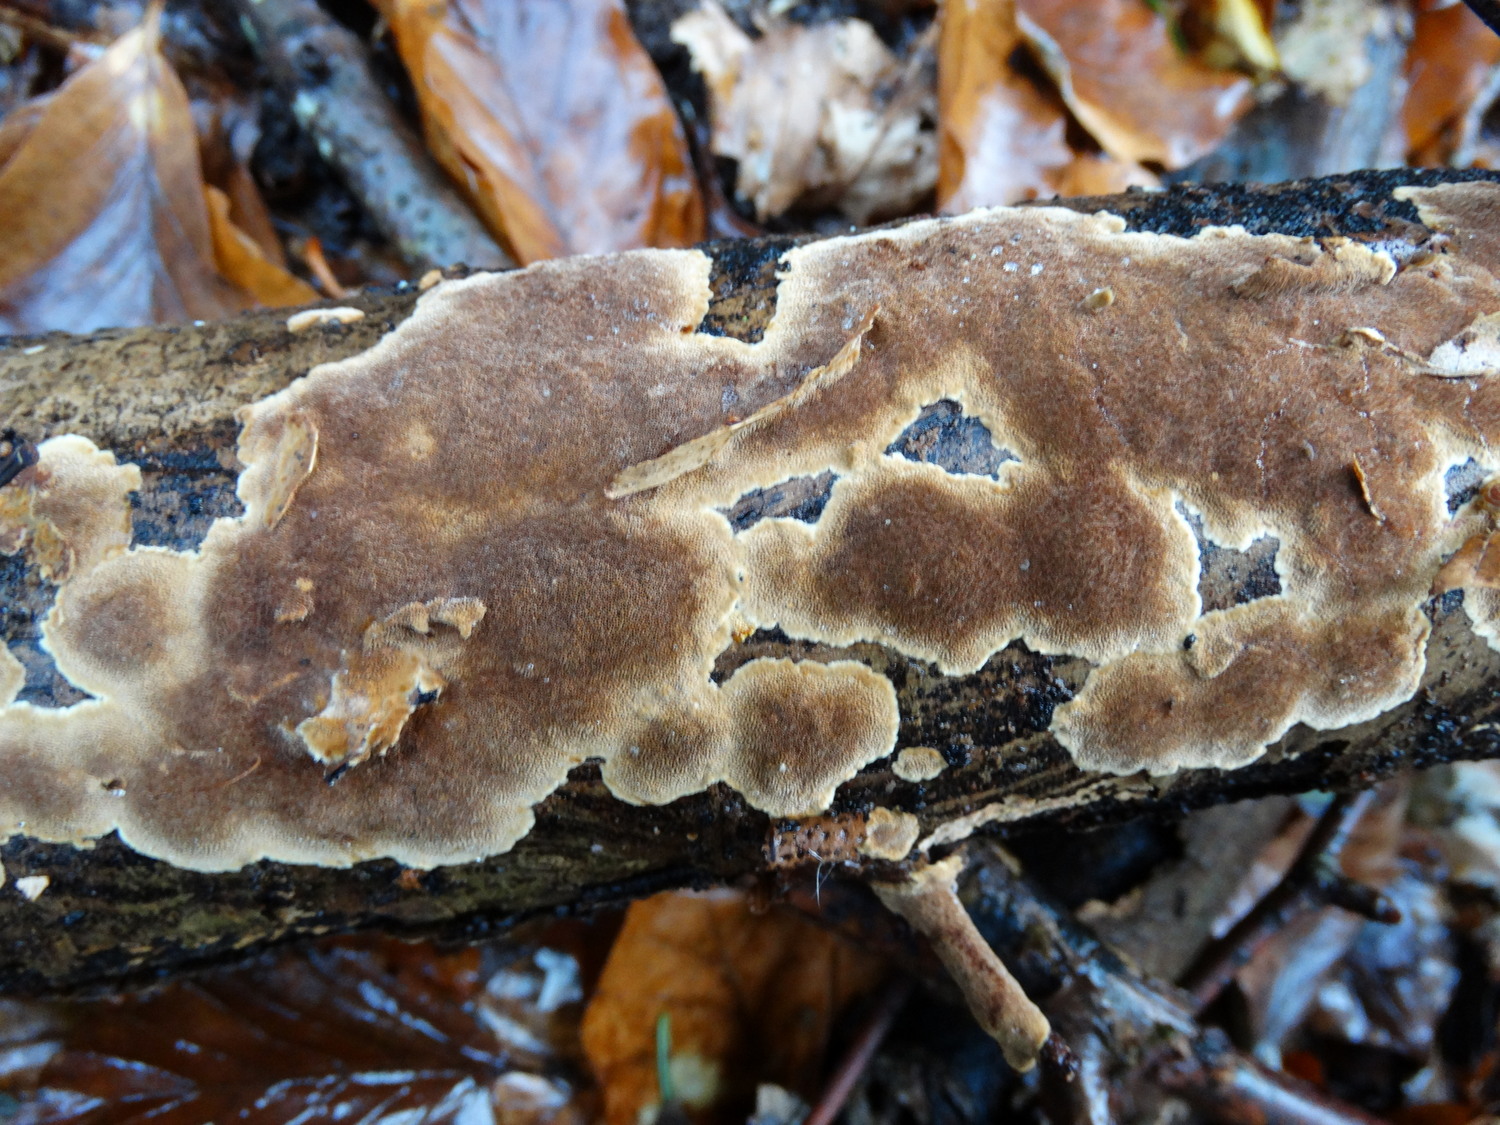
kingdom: Fungi
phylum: Basidiomycota
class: Agaricomycetes
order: Hymenochaetales
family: Hymenochaetaceae
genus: Fuscoporia
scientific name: Fuscoporia ferrea
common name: skorpe-ildporesvamp
